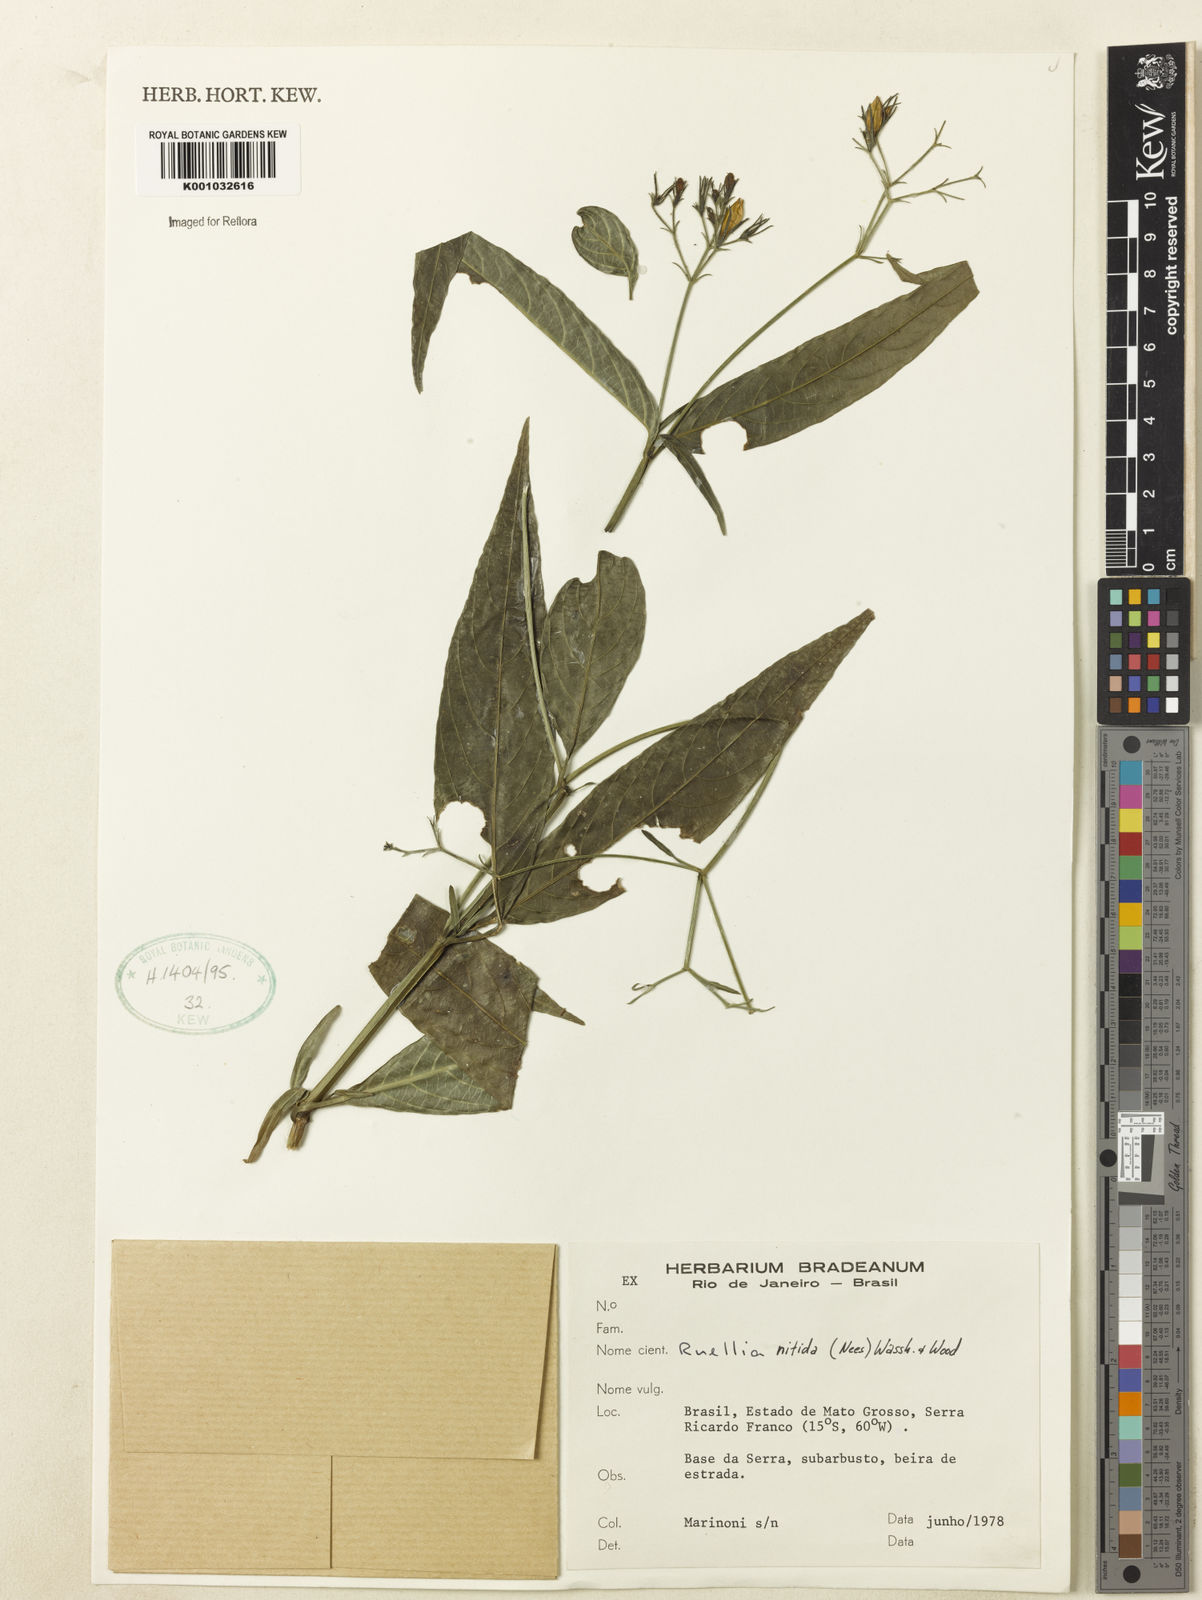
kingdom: Plantae
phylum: Tracheophyta
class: Magnoliopsida
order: Lamiales
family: Acanthaceae
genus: Ruellia
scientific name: Ruellia nitida
